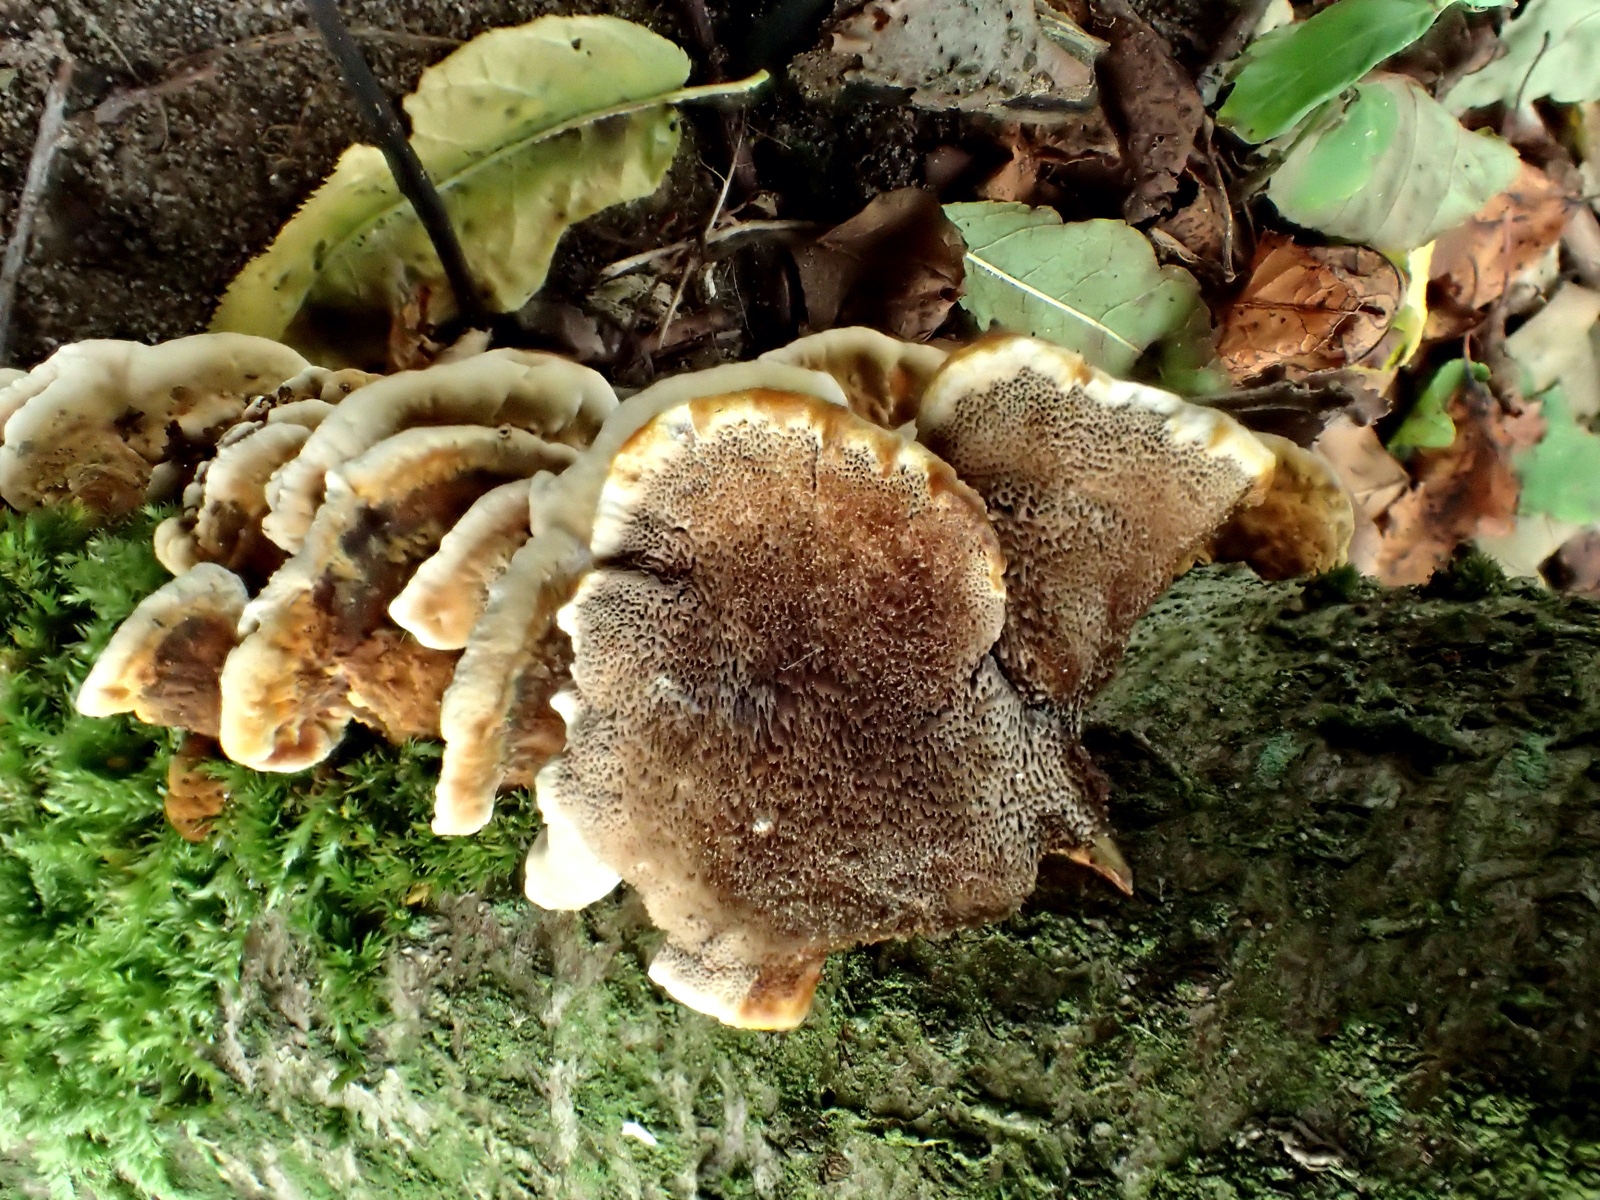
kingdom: Fungi
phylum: Basidiomycota
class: Agaricomycetes
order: Hymenochaetales
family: Hymenochaetaceae
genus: Xanthoporia
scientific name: Xanthoporia radiata
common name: elle-spejlporesvamp
